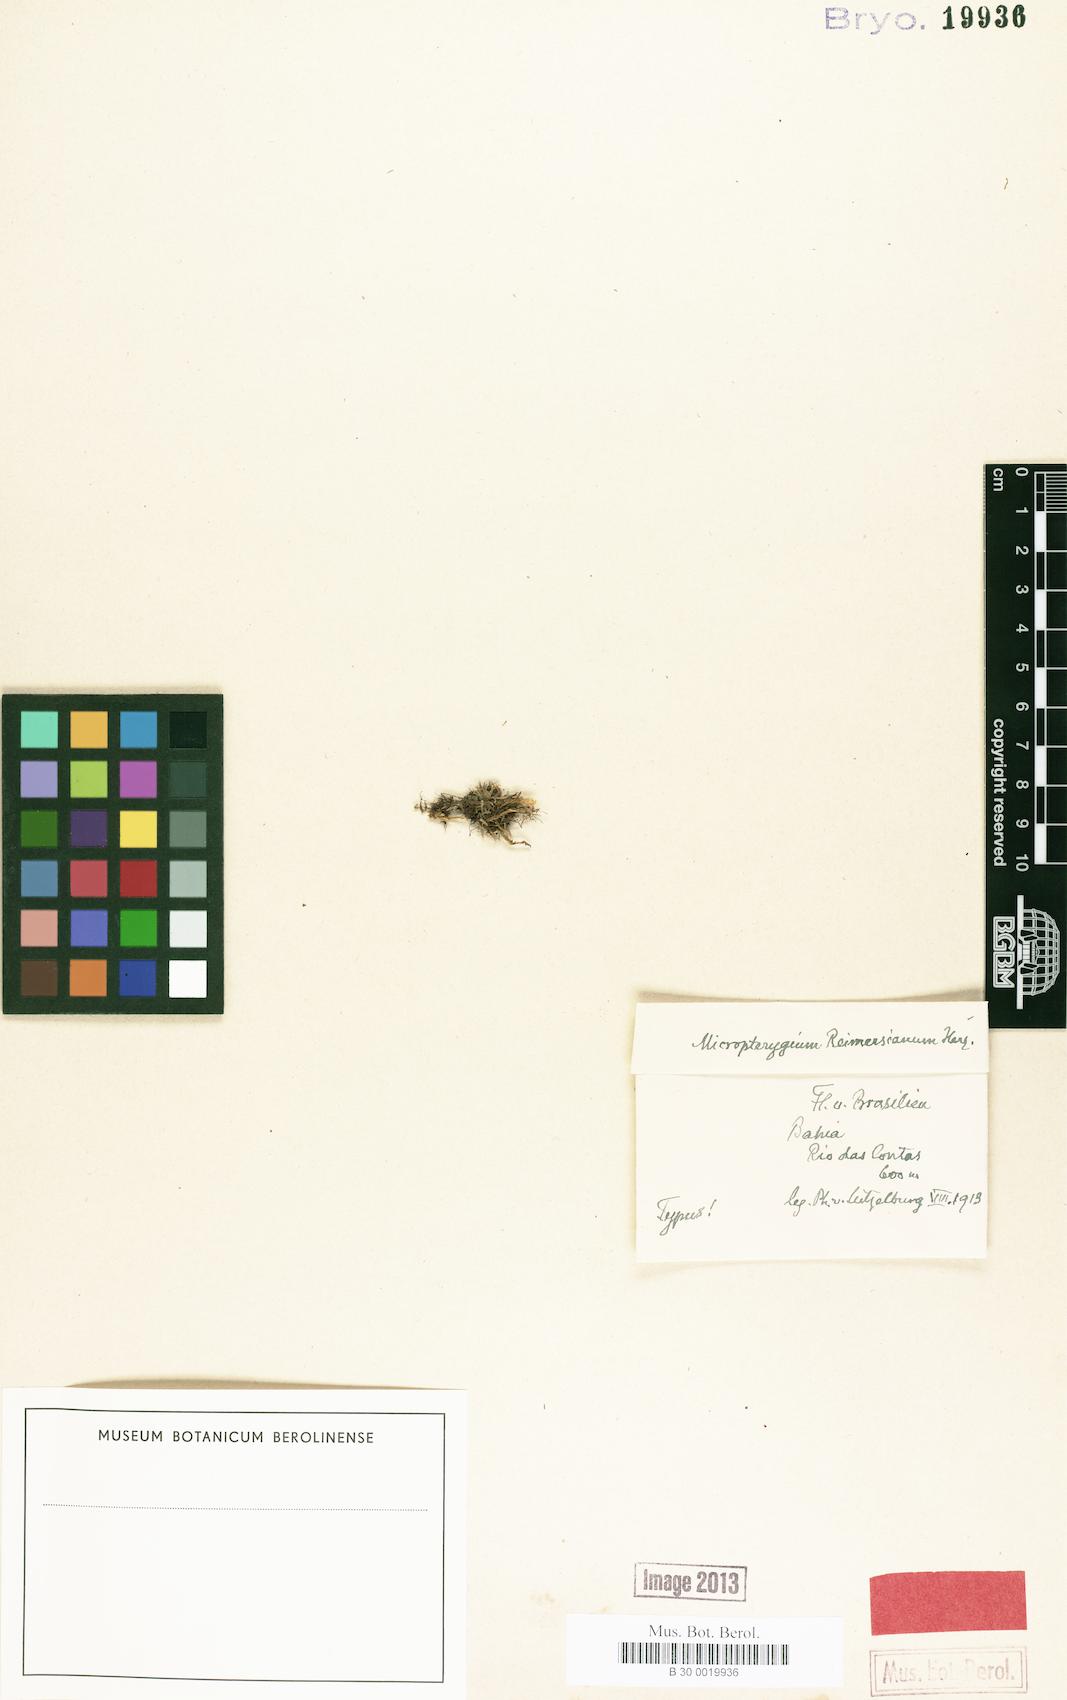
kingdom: Plantae
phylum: Marchantiophyta
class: Jungermanniopsida
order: Jungermanniales
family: Lepidoziaceae
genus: Micropterygium
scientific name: Micropterygium reimersianum
